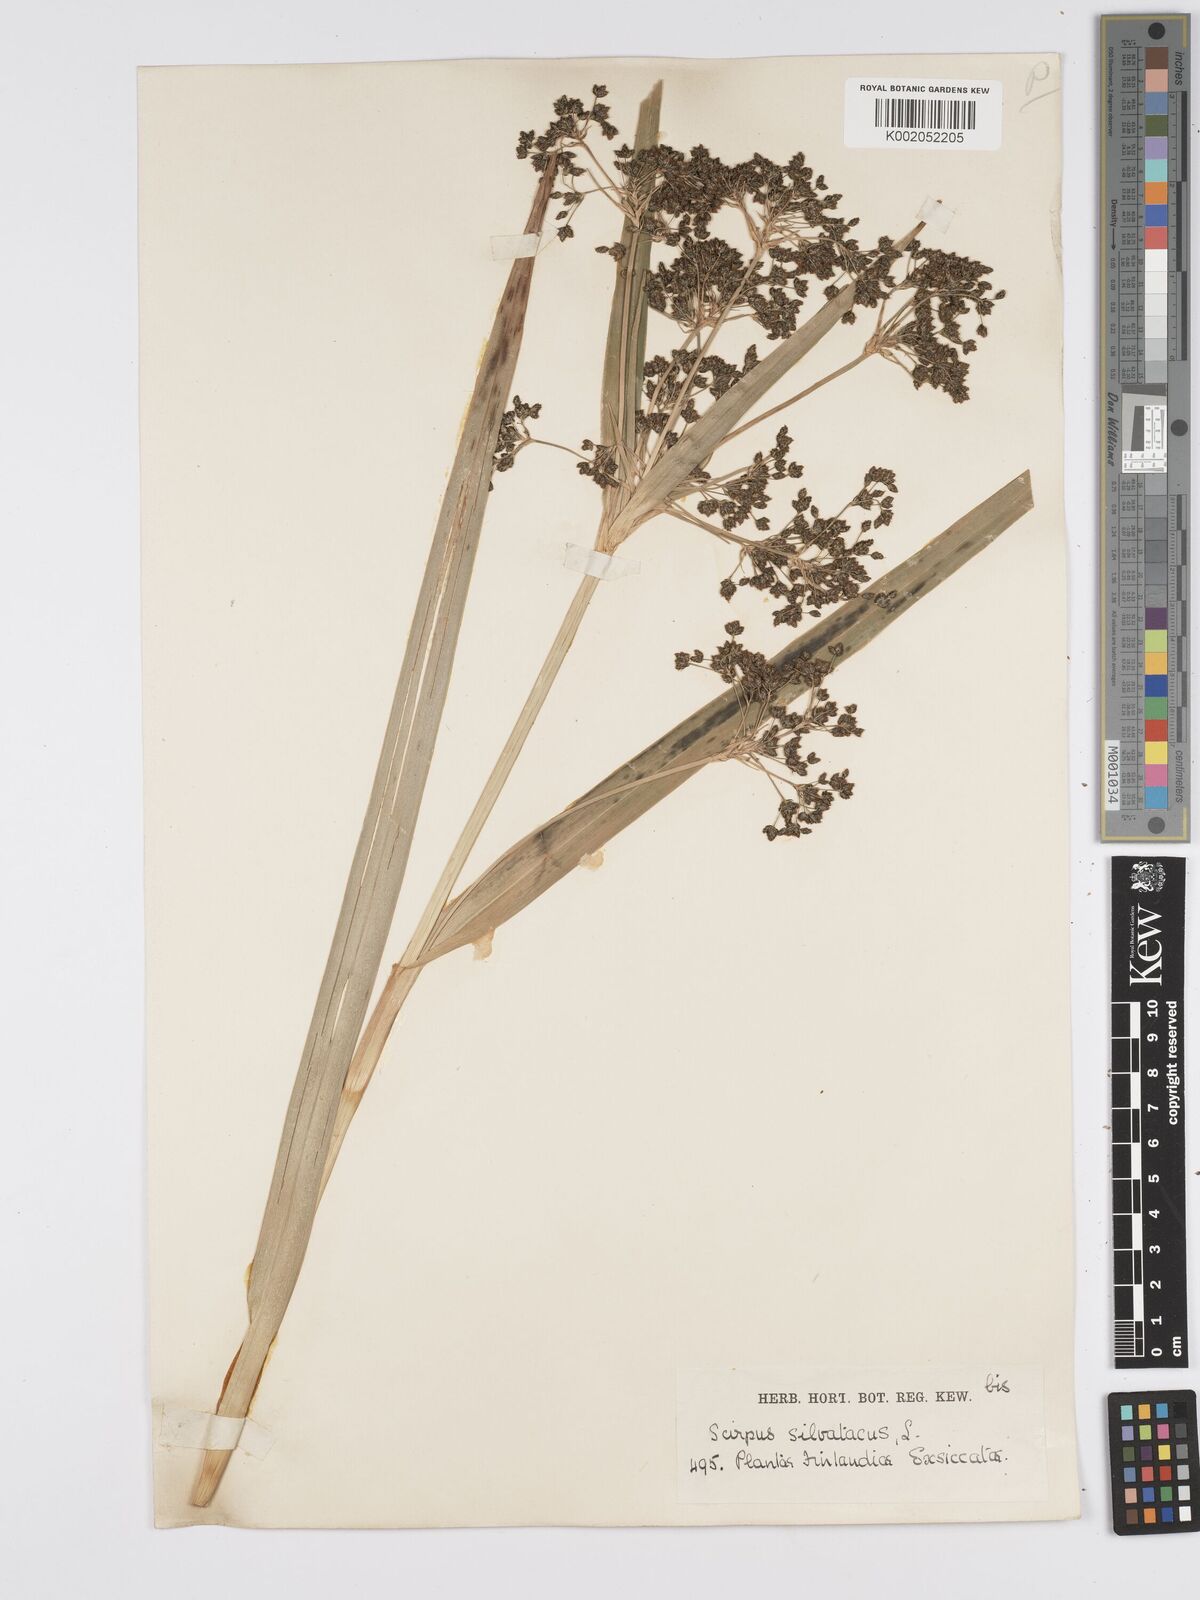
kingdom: Plantae
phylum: Tracheophyta
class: Liliopsida
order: Poales
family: Cyperaceae
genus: Scirpus
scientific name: Scirpus sylvaticus
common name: Wood club-rush
